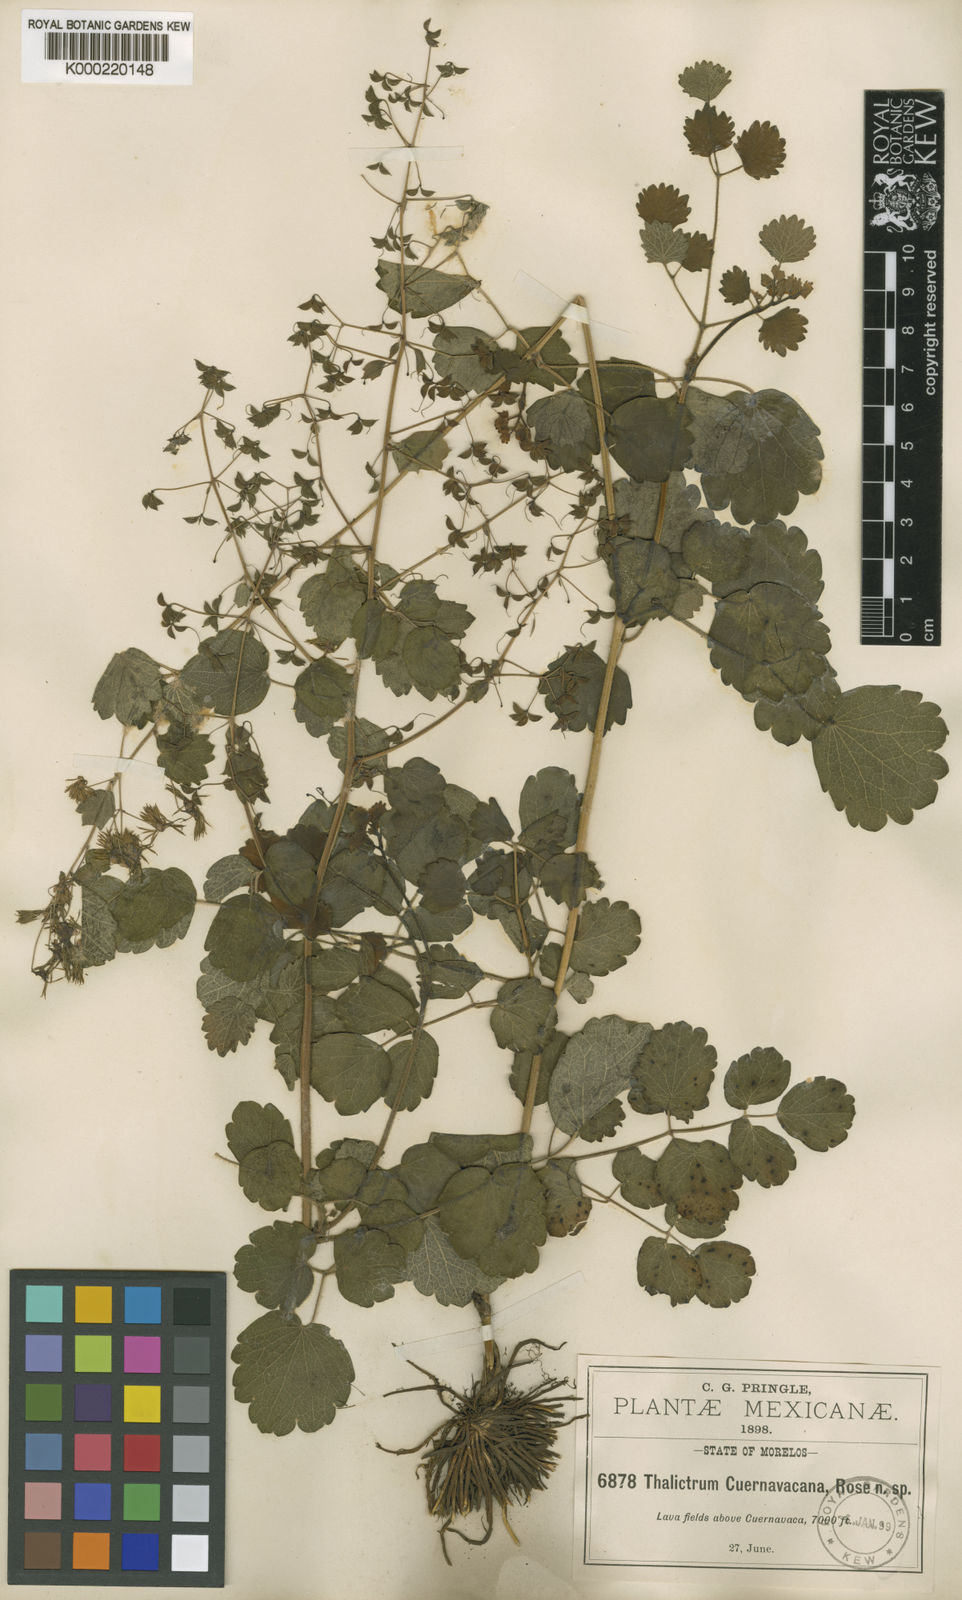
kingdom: Plantae
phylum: Tracheophyta
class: Magnoliopsida
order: Ranunculales
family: Ranunculaceae
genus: Thalictrum
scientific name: Thalictrum cuernavacanum
